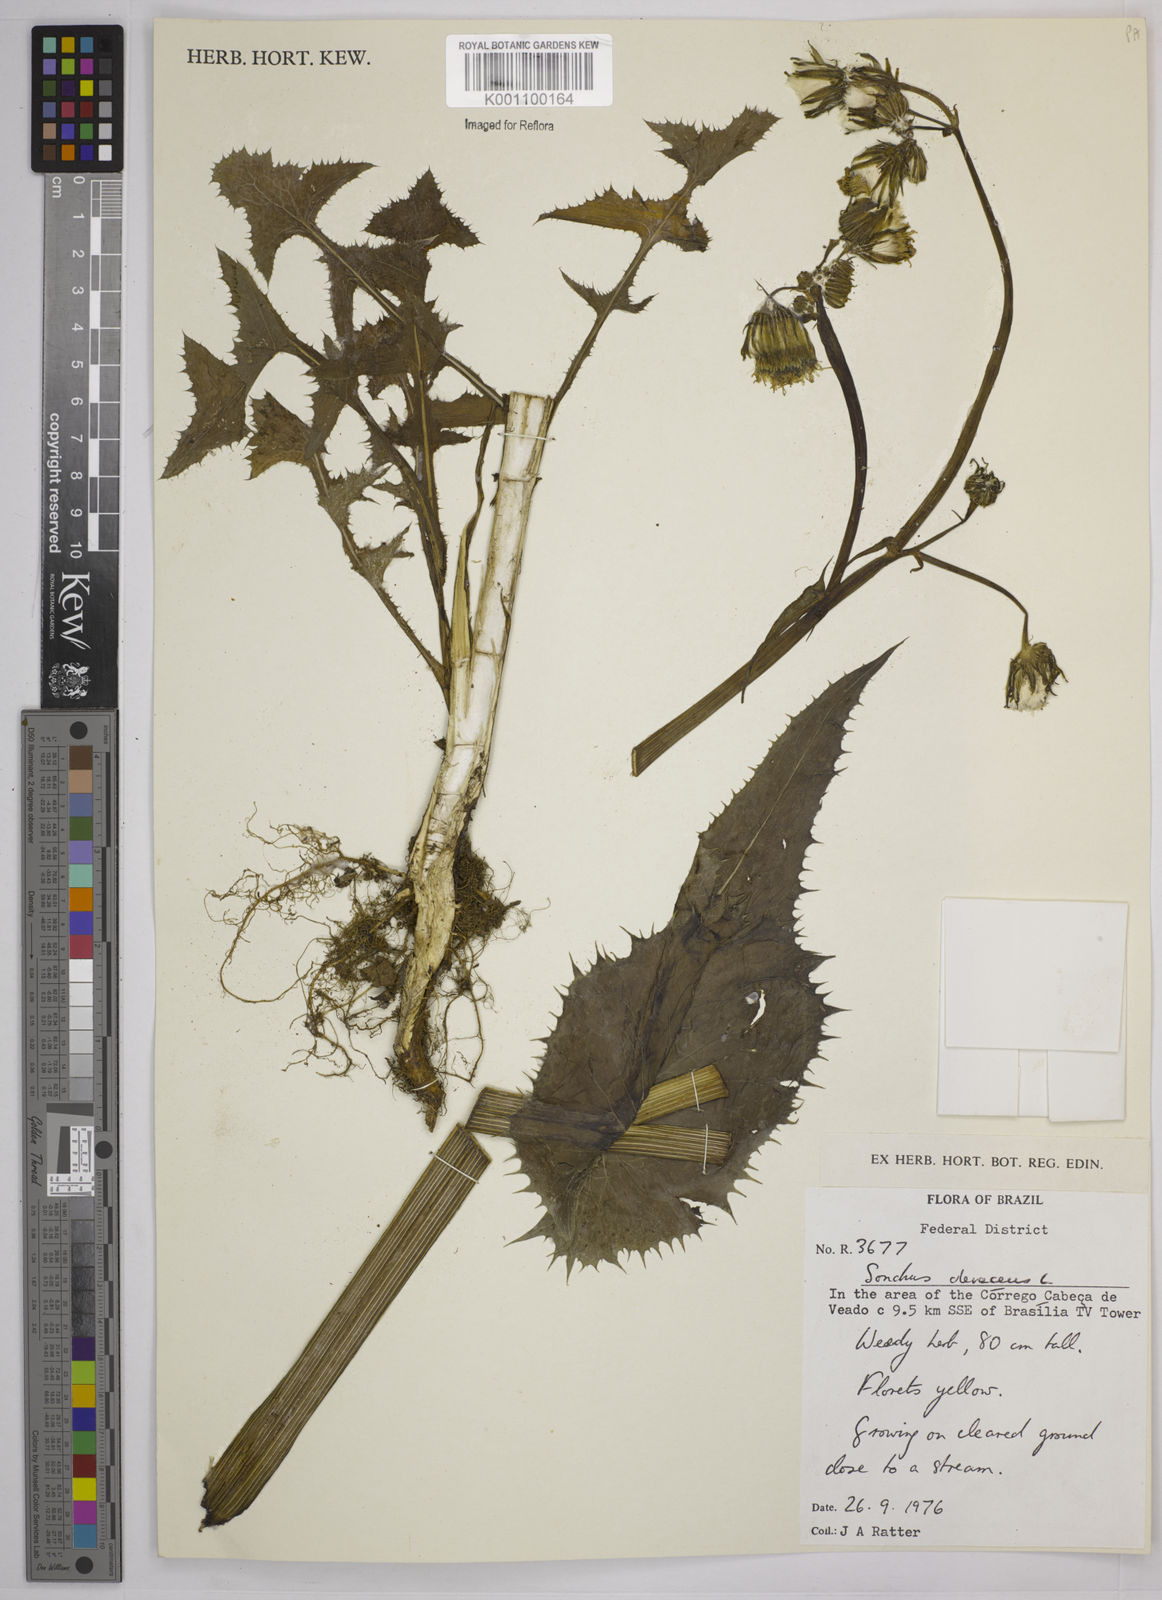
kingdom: Plantae
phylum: Tracheophyta
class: Magnoliopsida
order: Asterales
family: Asteraceae
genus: Sonchus
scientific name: Sonchus oleraceus
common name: Common sowthistle
